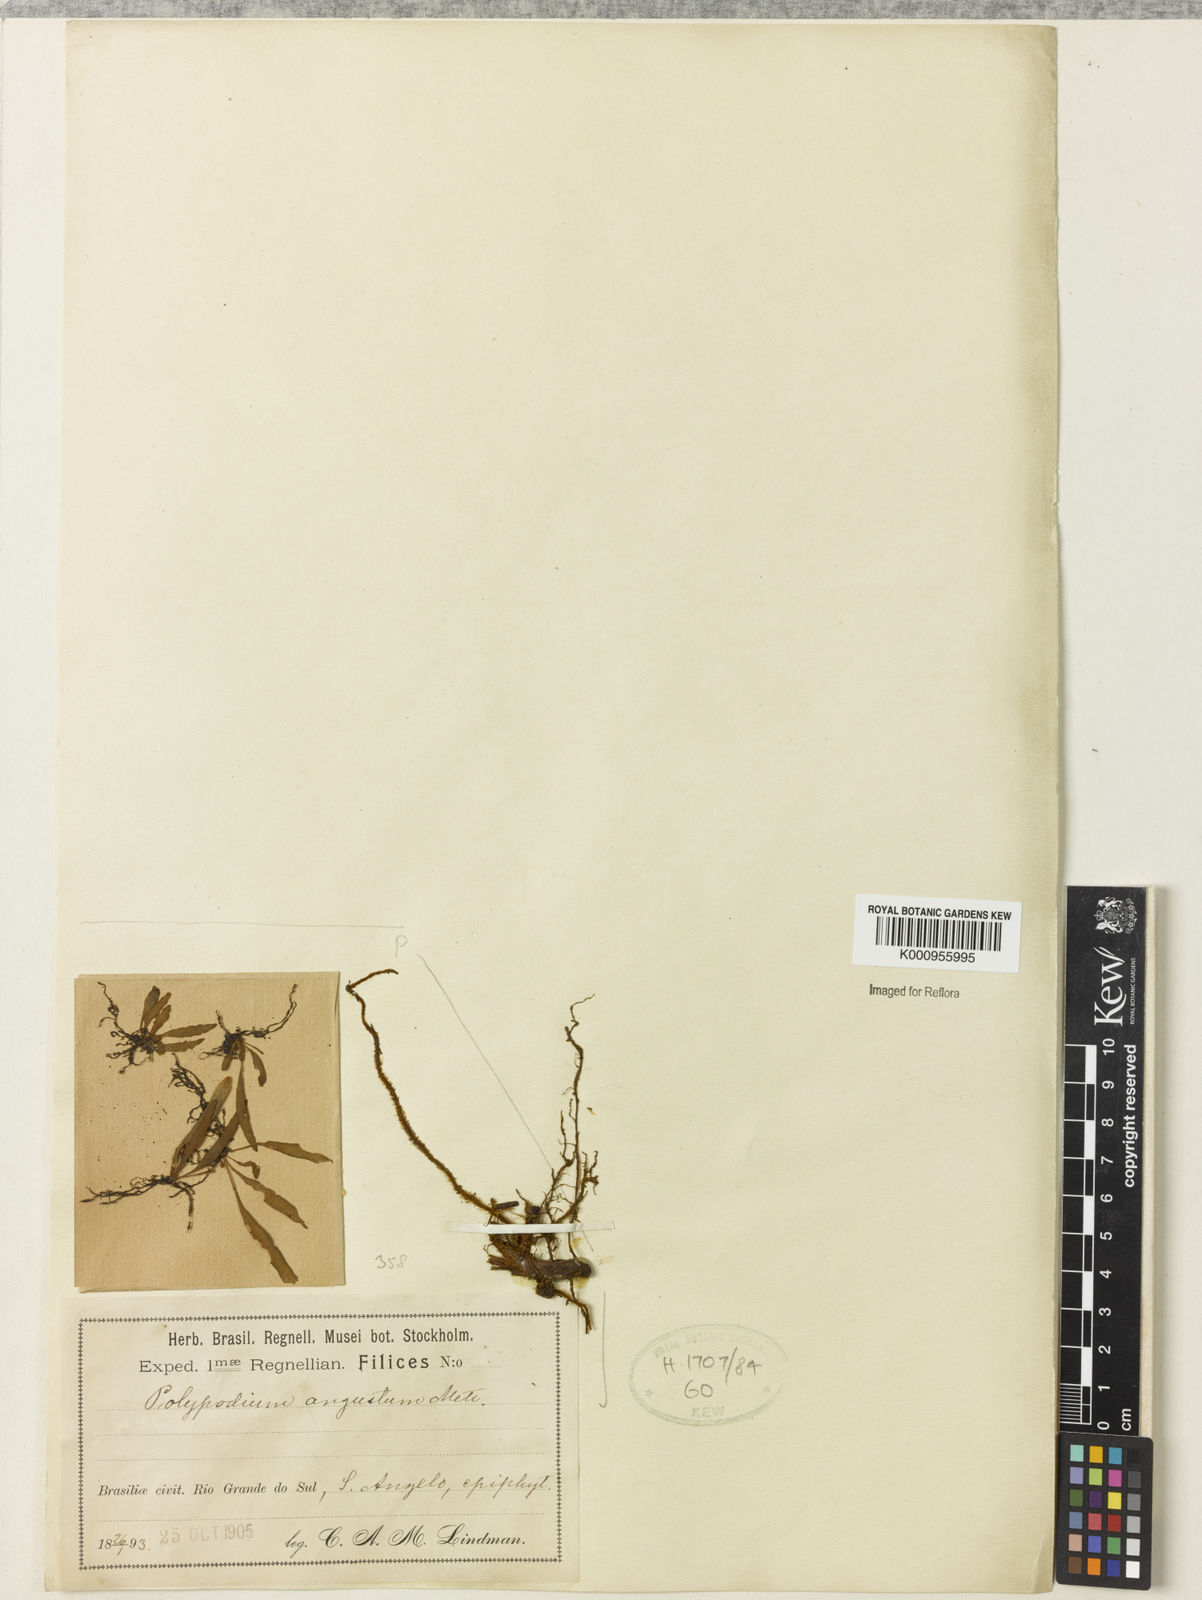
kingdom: Plantae
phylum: Tracheophyta
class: Polypodiopsida
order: Polypodiales
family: Polypodiaceae
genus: Pleopeltis
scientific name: Pleopeltis angusta
